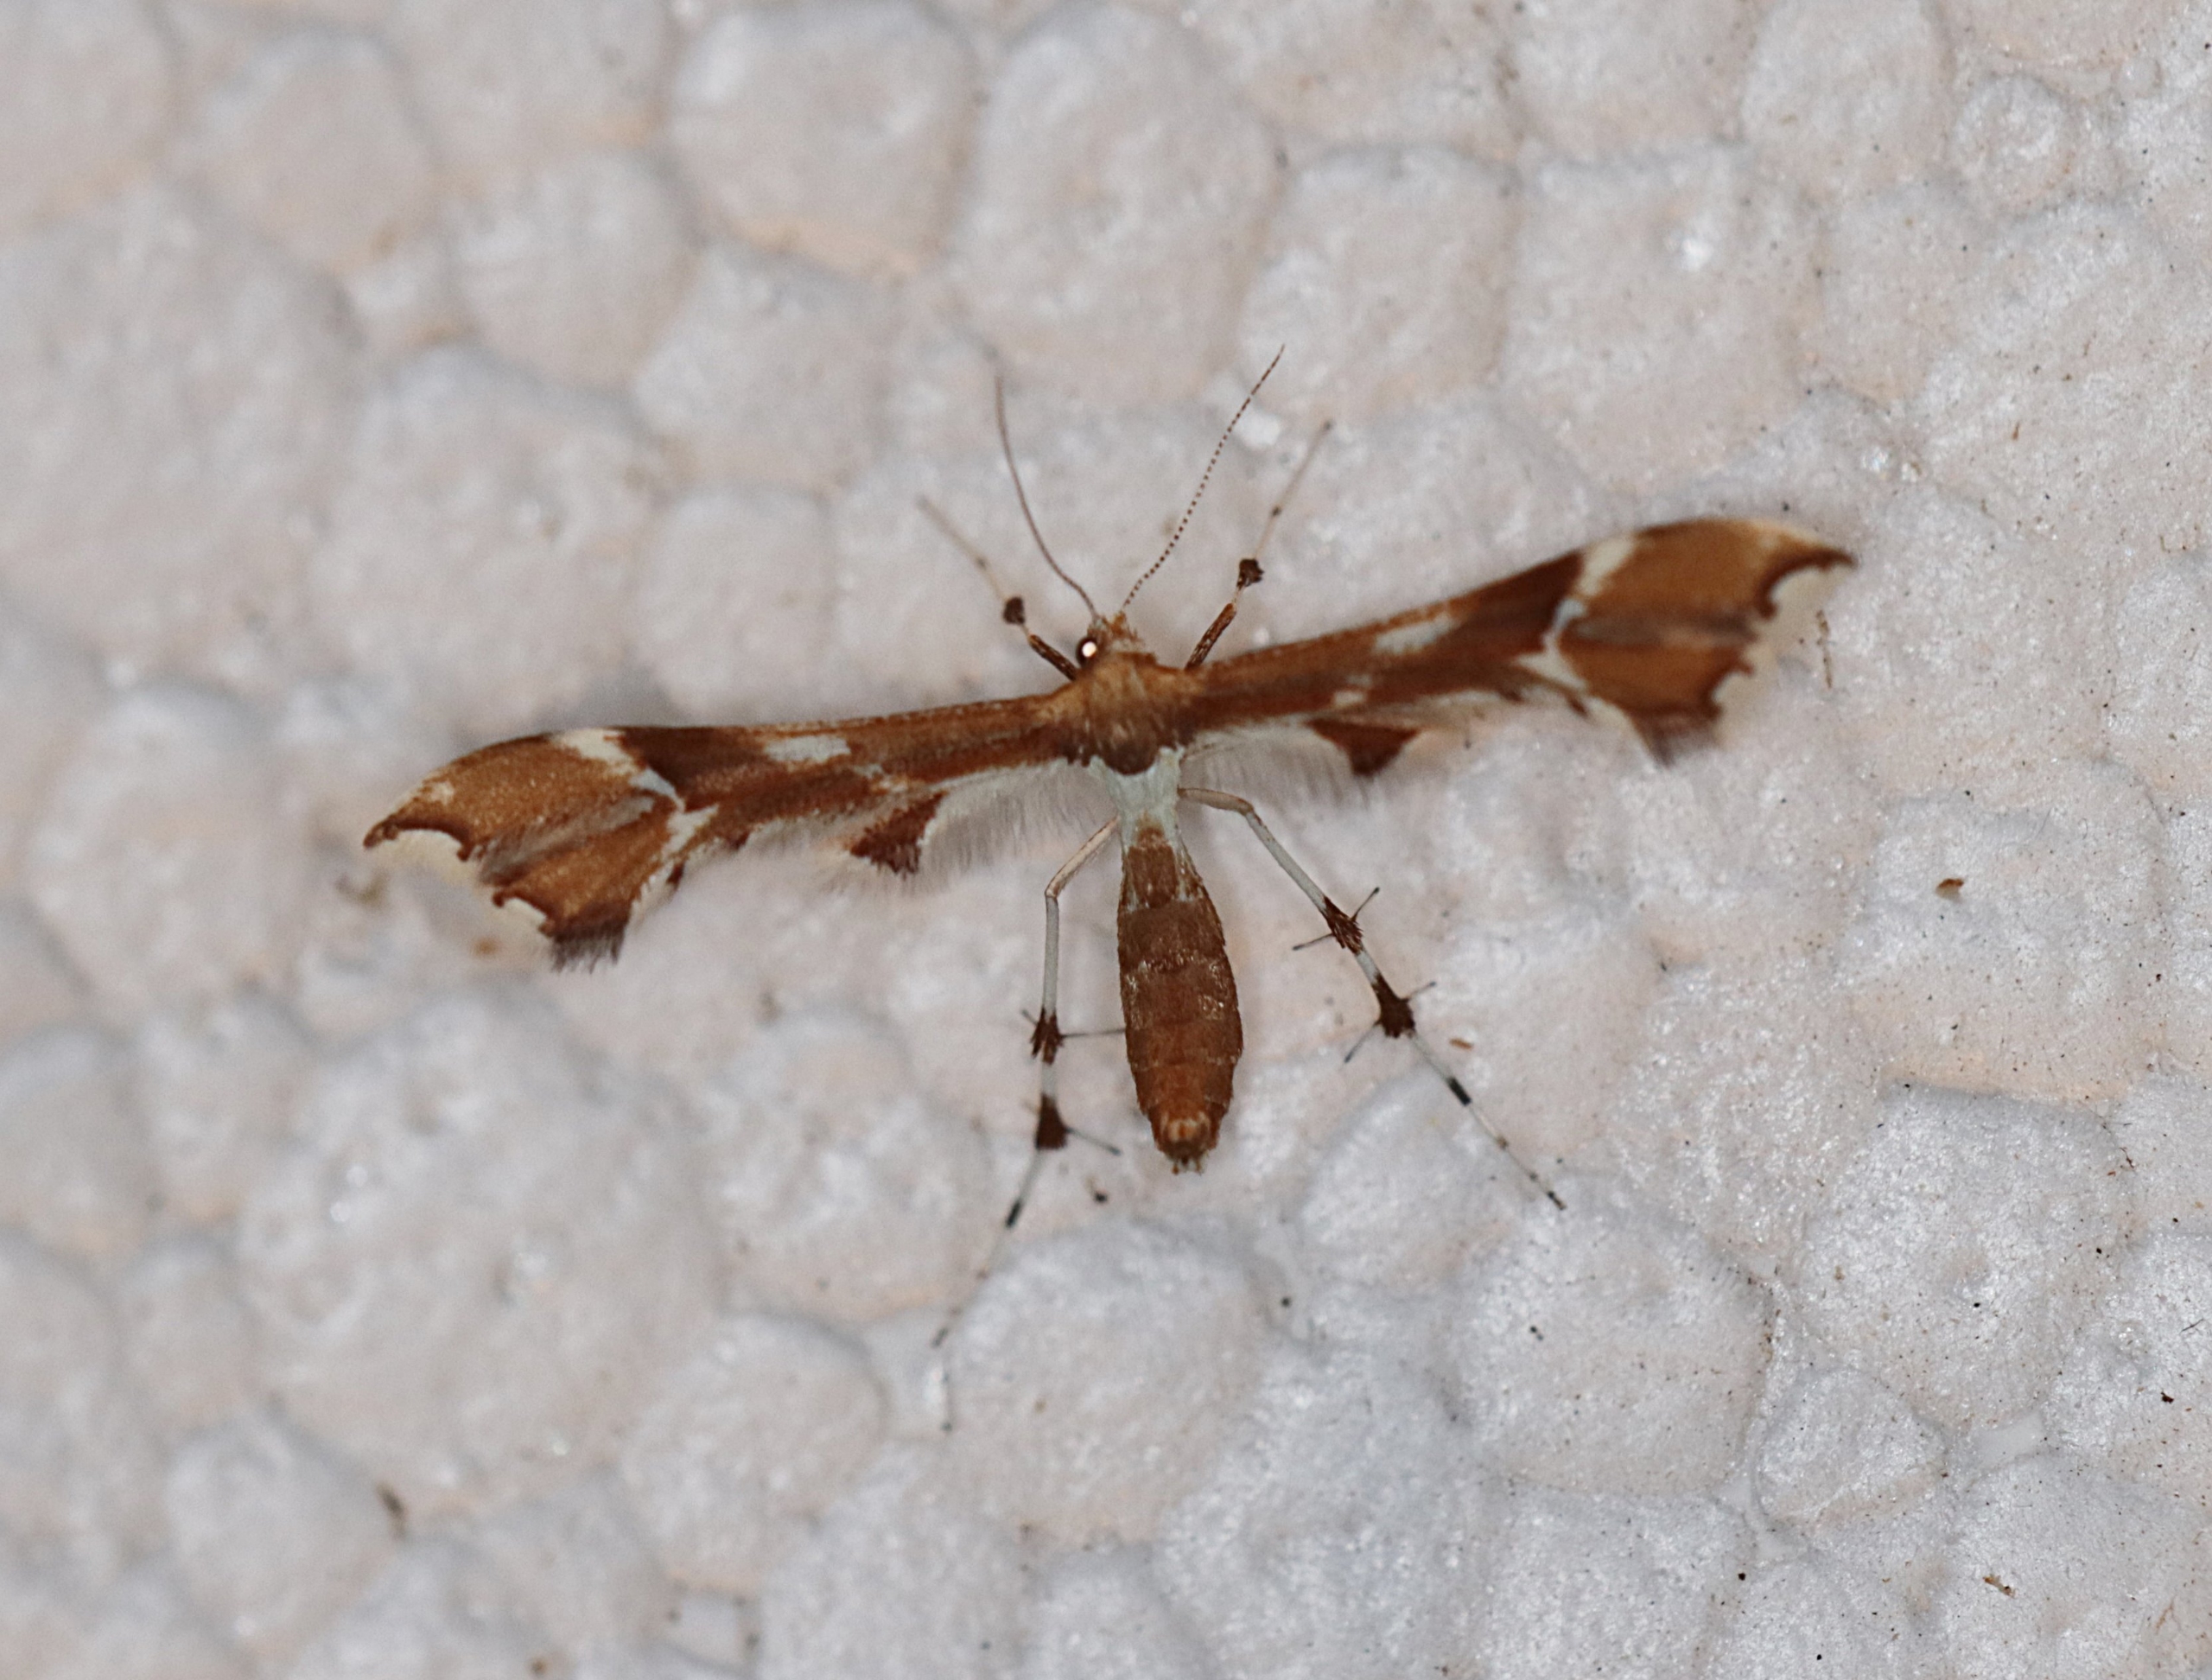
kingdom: Animalia
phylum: Arthropoda
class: Insecta
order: Lepidoptera
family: Pterophoridae
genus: Cnaemidophorus
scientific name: Cnaemidophorus rhododactyla
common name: Rosenknopfjermøl
